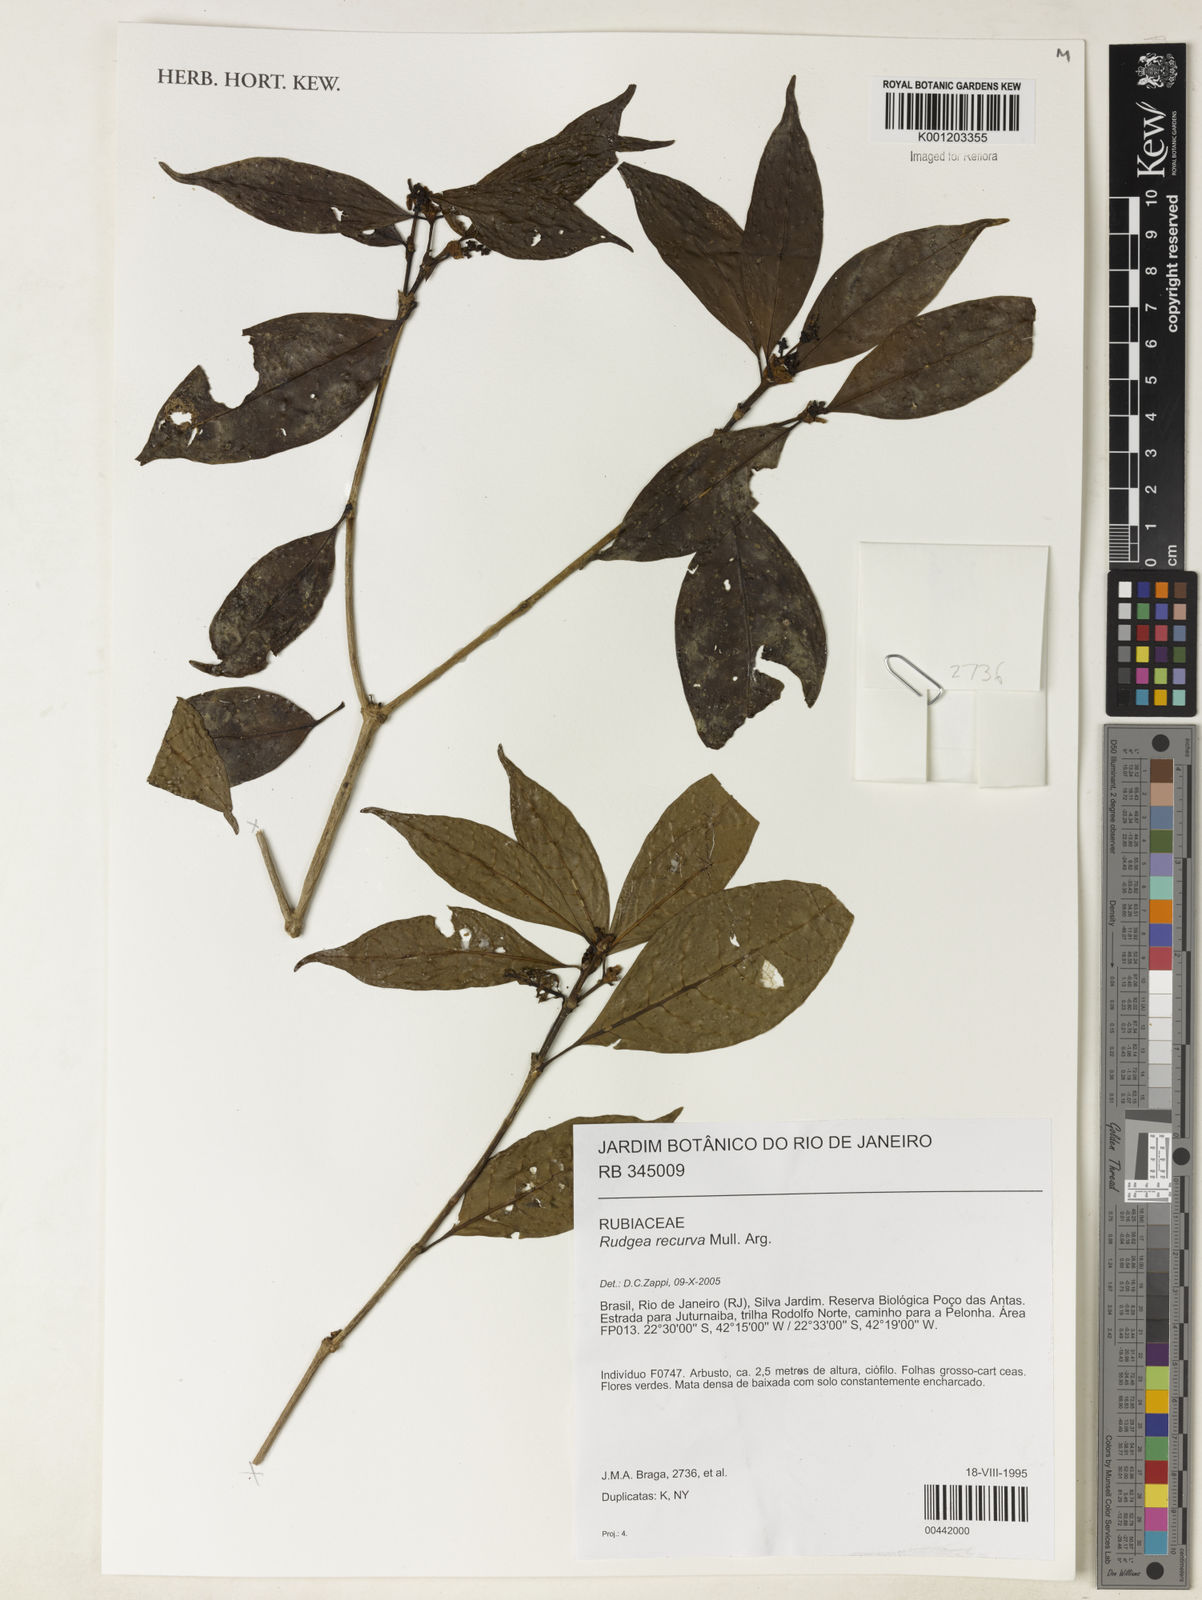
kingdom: Plantae
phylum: Tracheophyta
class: Magnoliopsida
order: Gentianales
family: Rubiaceae
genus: Rudgea
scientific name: Rudgea
